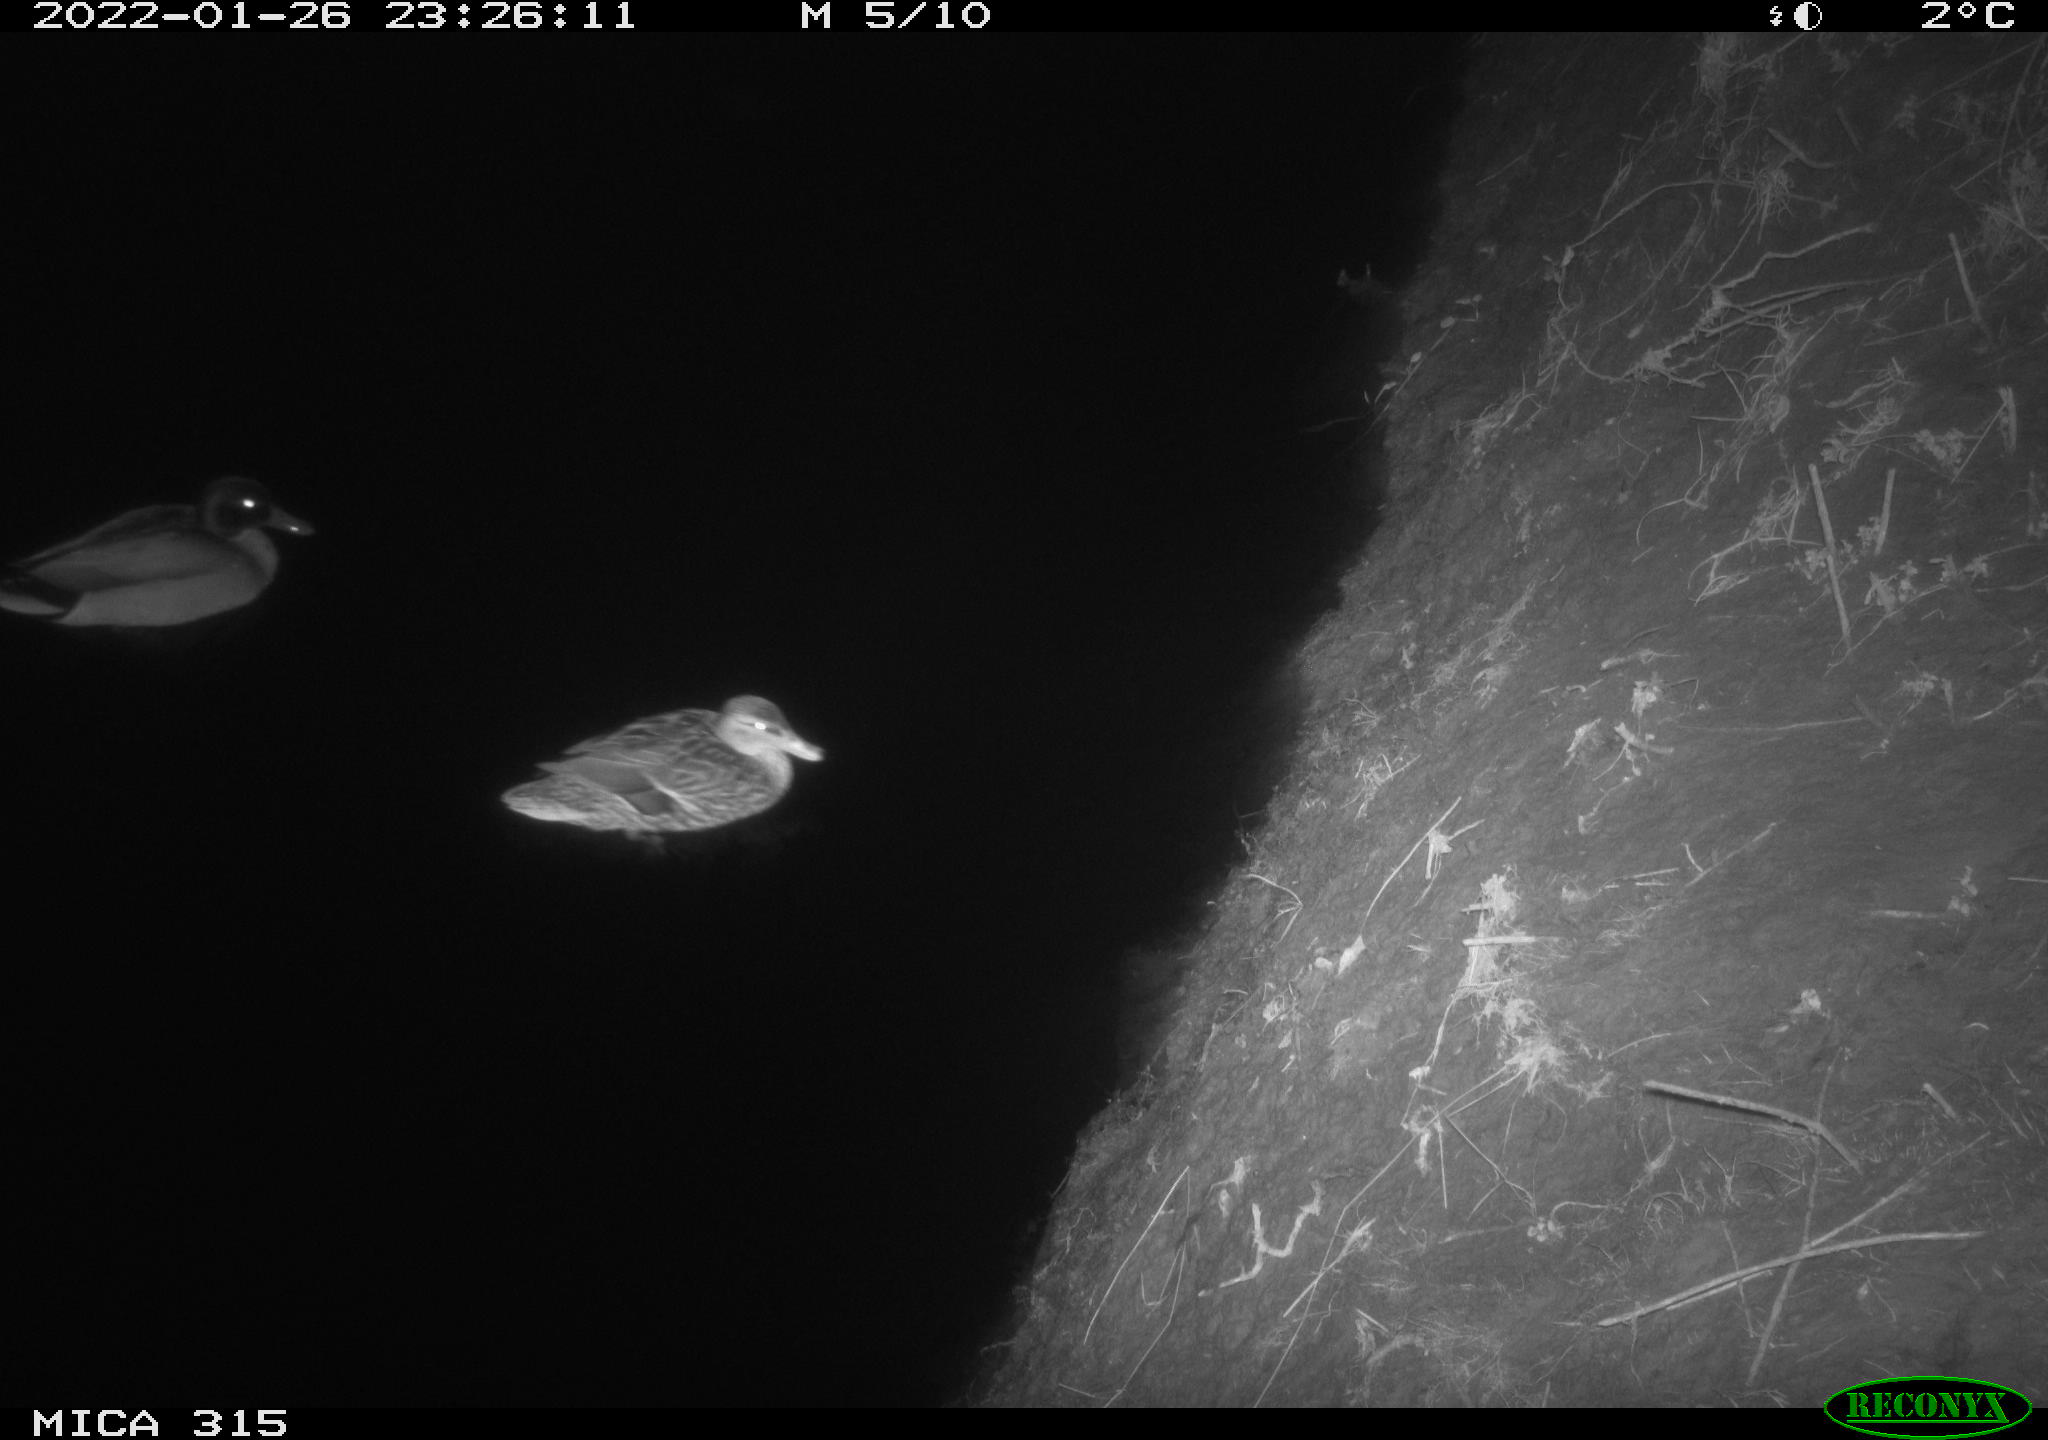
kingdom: Animalia
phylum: Chordata
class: Aves
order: Anseriformes
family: Anatidae
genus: Anas
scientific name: Anas
